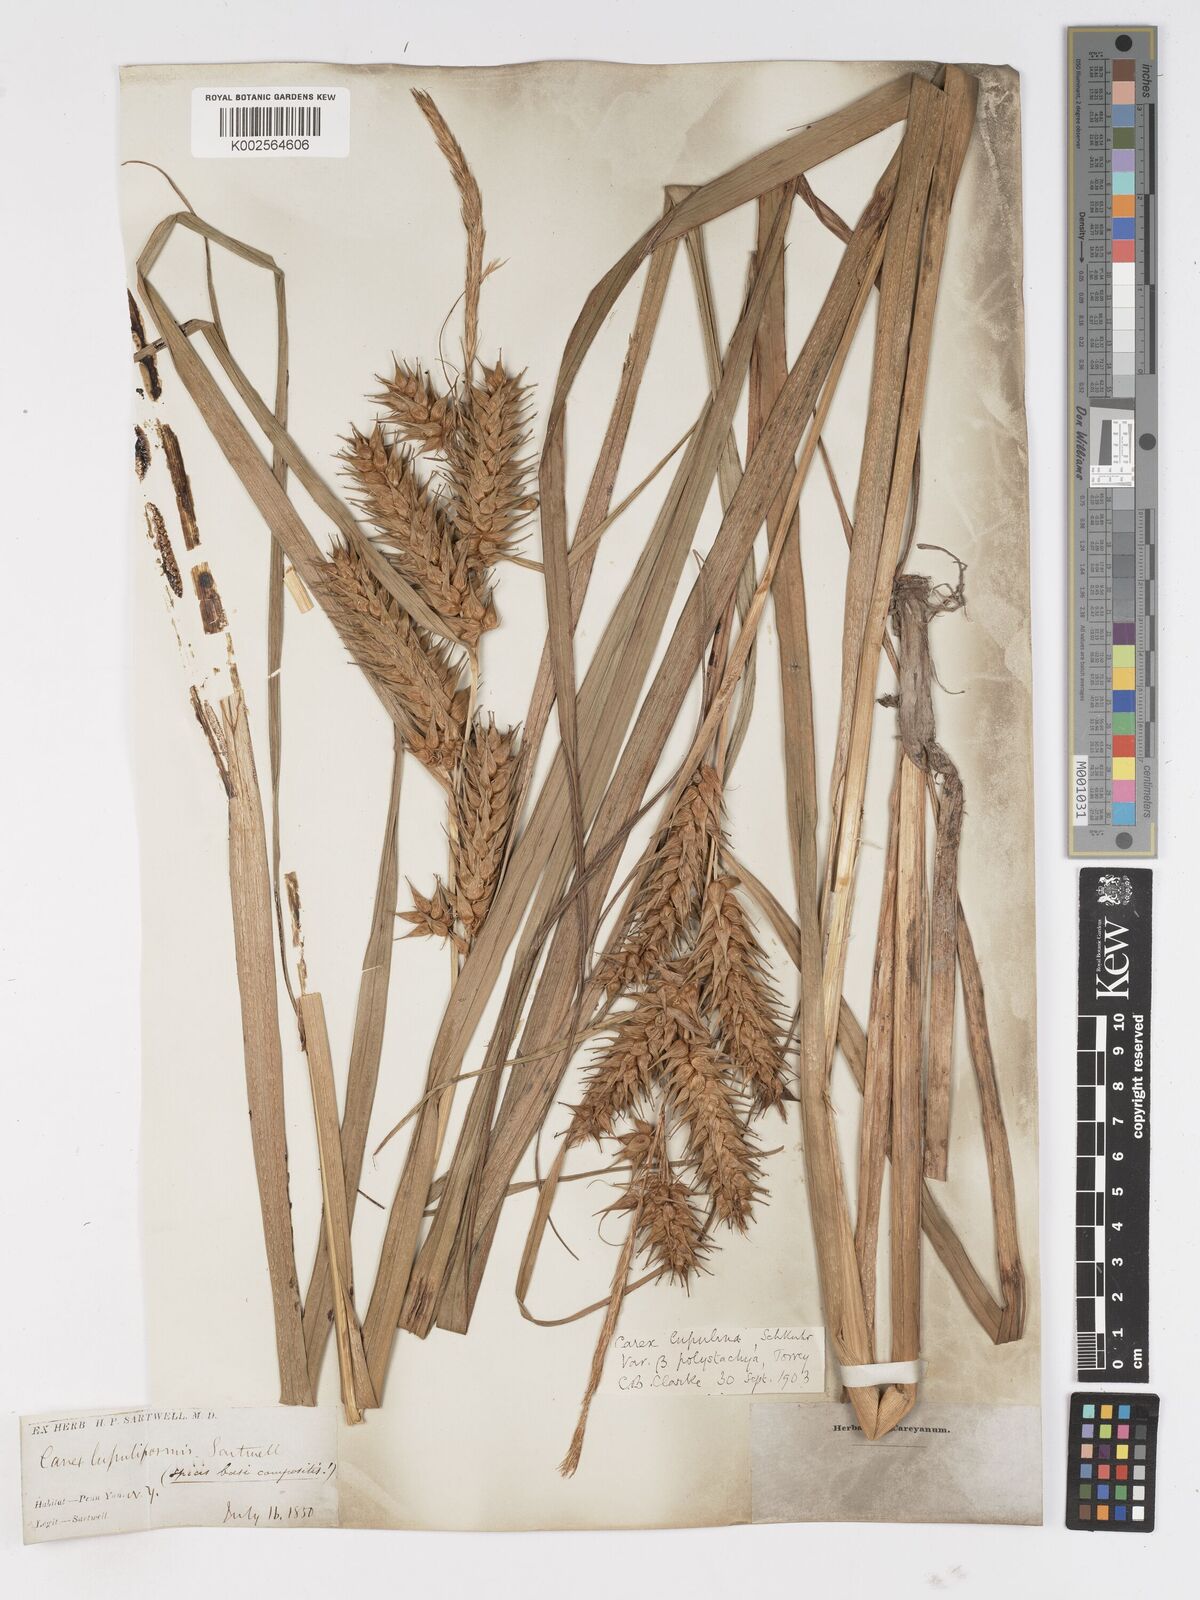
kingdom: Plantae
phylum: Tracheophyta
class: Liliopsida
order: Poales
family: Cyperaceae
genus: Carex
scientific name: Carex lupuliformis
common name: False hop sedge
